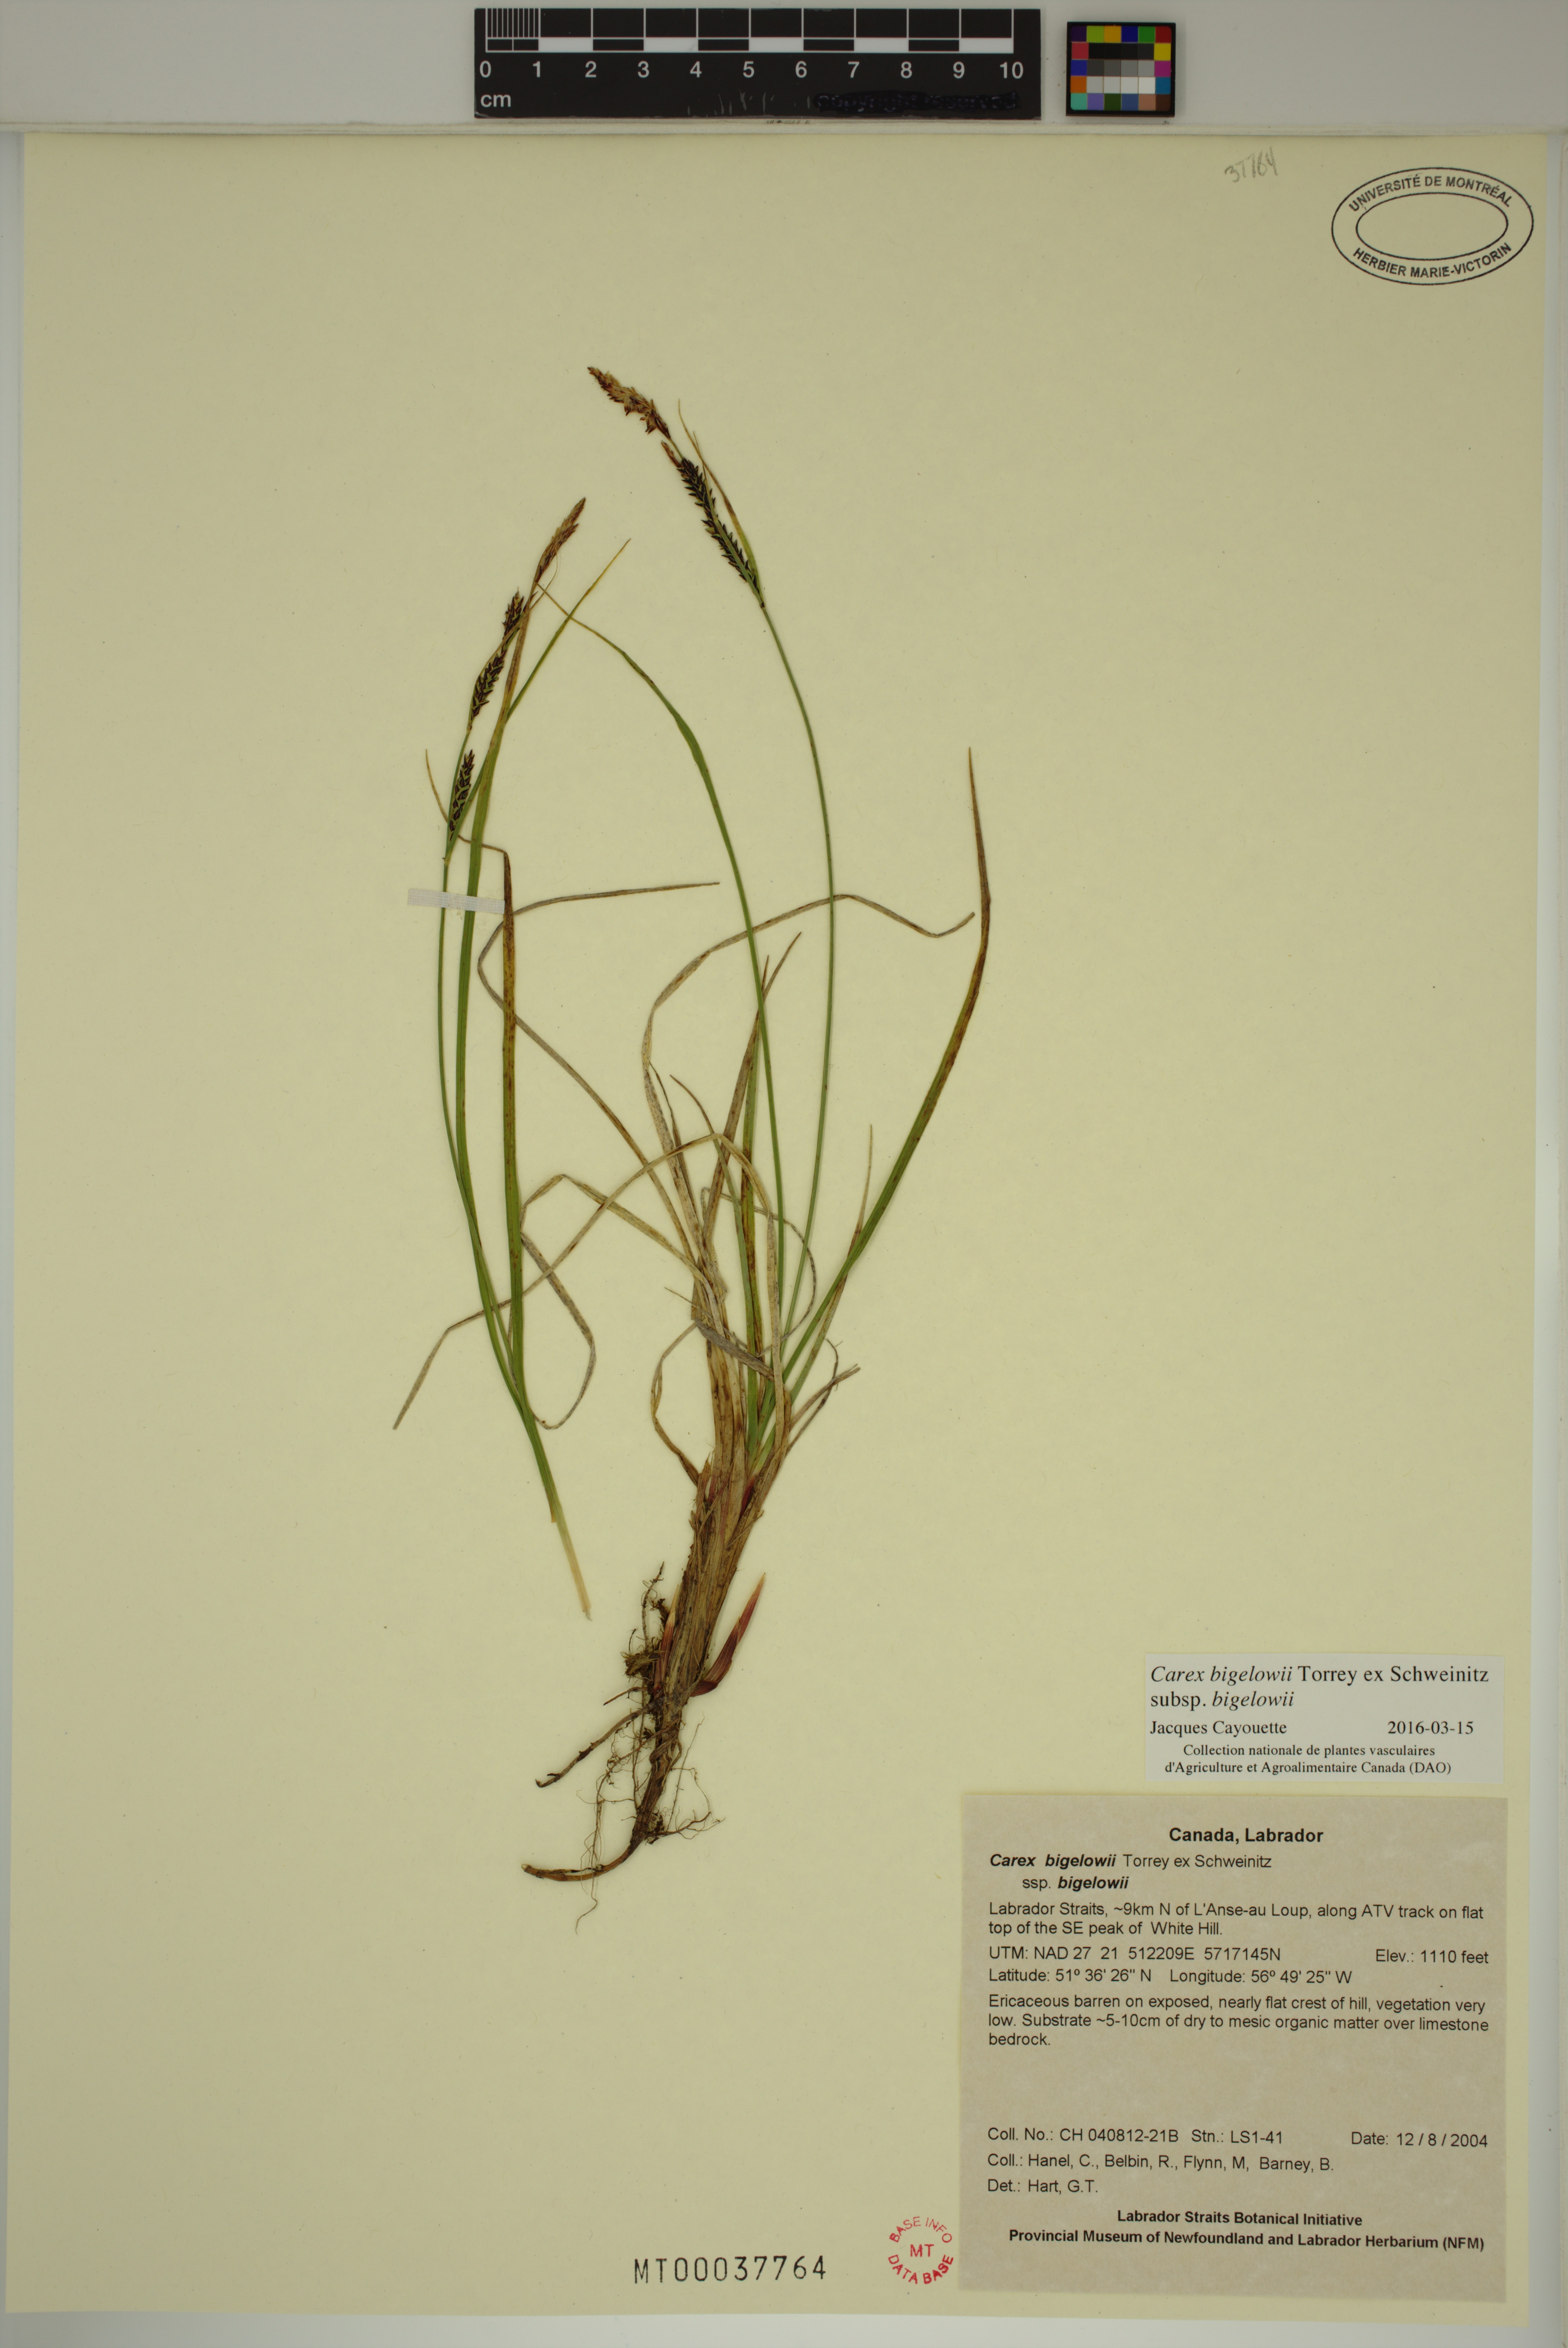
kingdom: Plantae
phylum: Tracheophyta
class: Liliopsida
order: Poales
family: Cyperaceae
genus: Carex
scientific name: Carex bigelowii
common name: Stiff sedge
